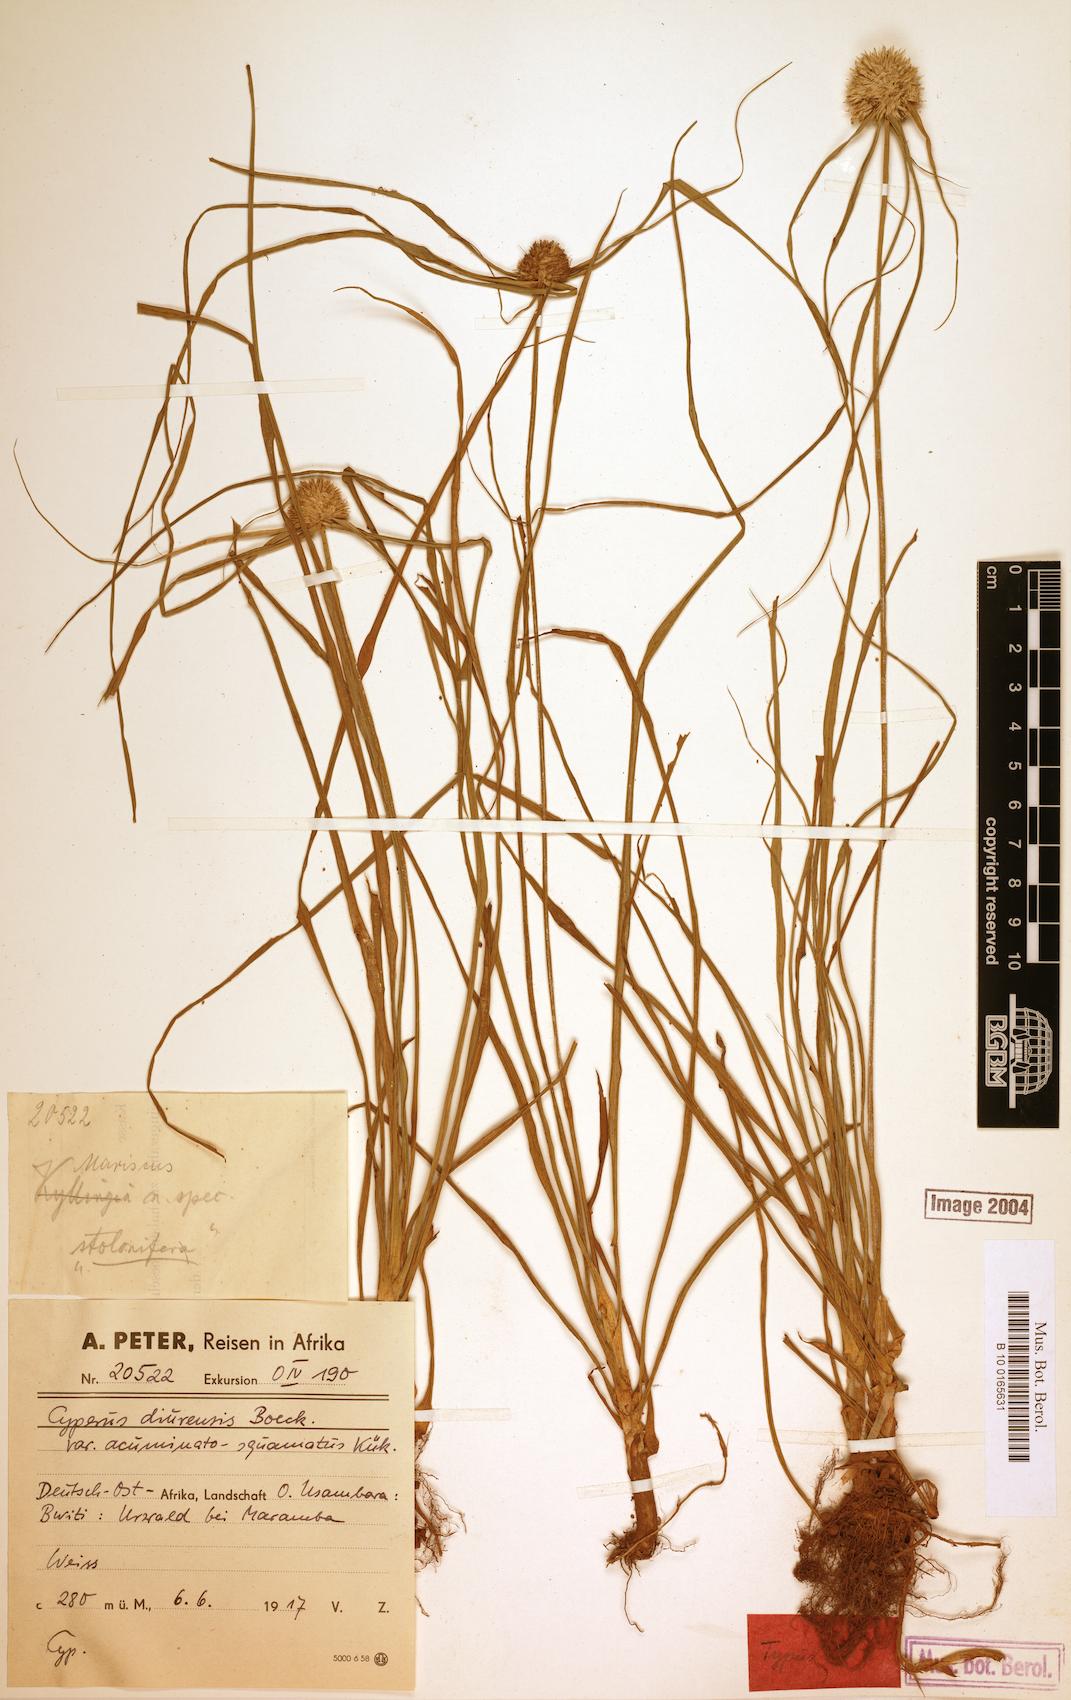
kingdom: Plantae
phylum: Tracheophyta
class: Liliopsida
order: Poales
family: Cyperaceae
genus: Cyperus
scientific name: Cyperus diurensis
